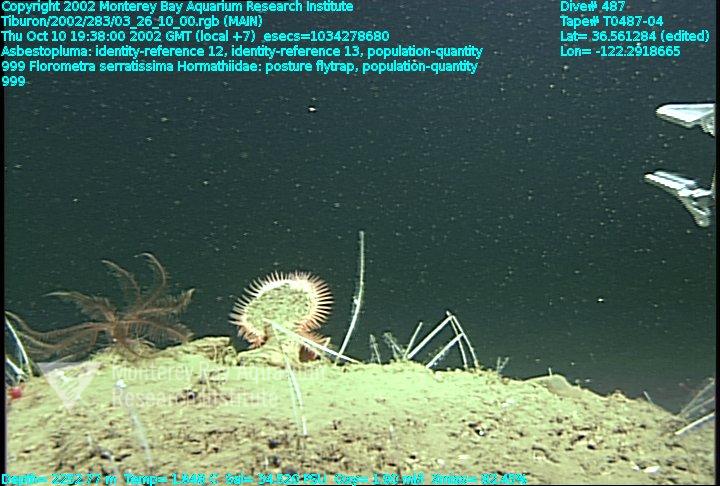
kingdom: Animalia
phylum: Porifera
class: Demospongiae
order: Poecilosclerida
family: Cladorhizidae
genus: Asbestopluma
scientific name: Asbestopluma
